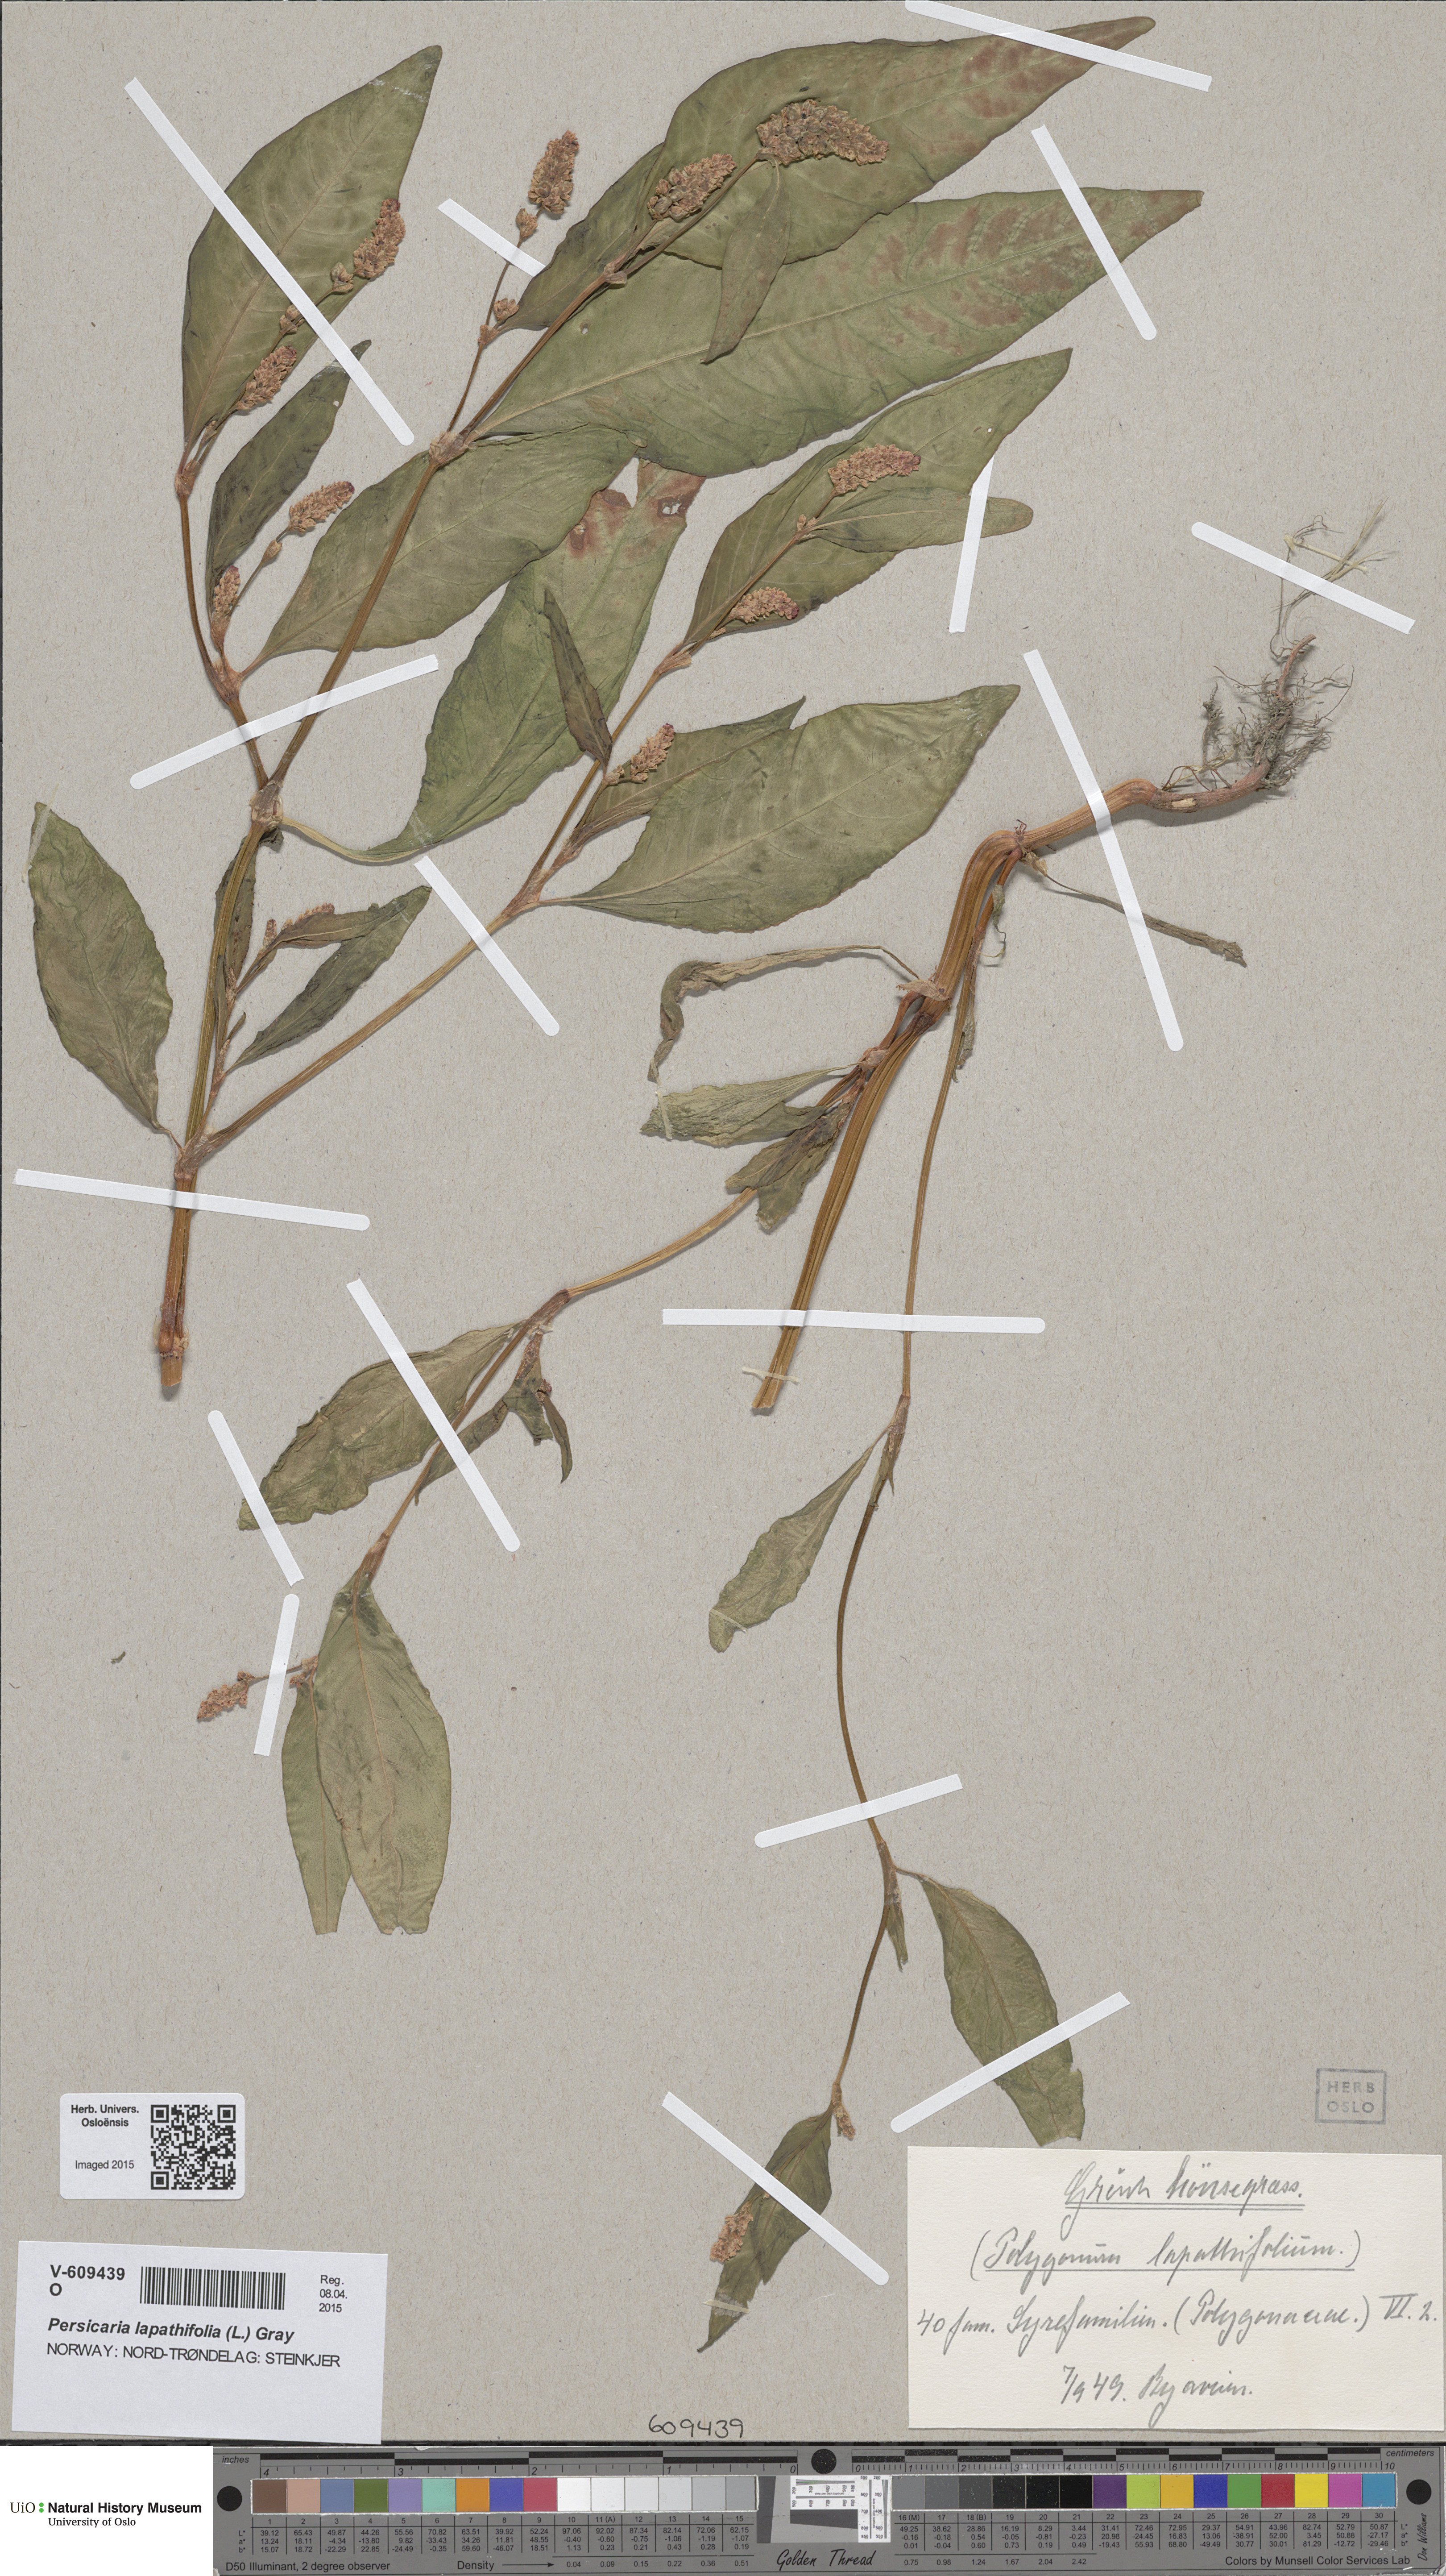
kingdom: Plantae
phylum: Tracheophyta
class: Magnoliopsida
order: Caryophyllales
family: Polygonaceae
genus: Persicaria
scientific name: Persicaria lapathifolia
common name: Curlytop knotweed
